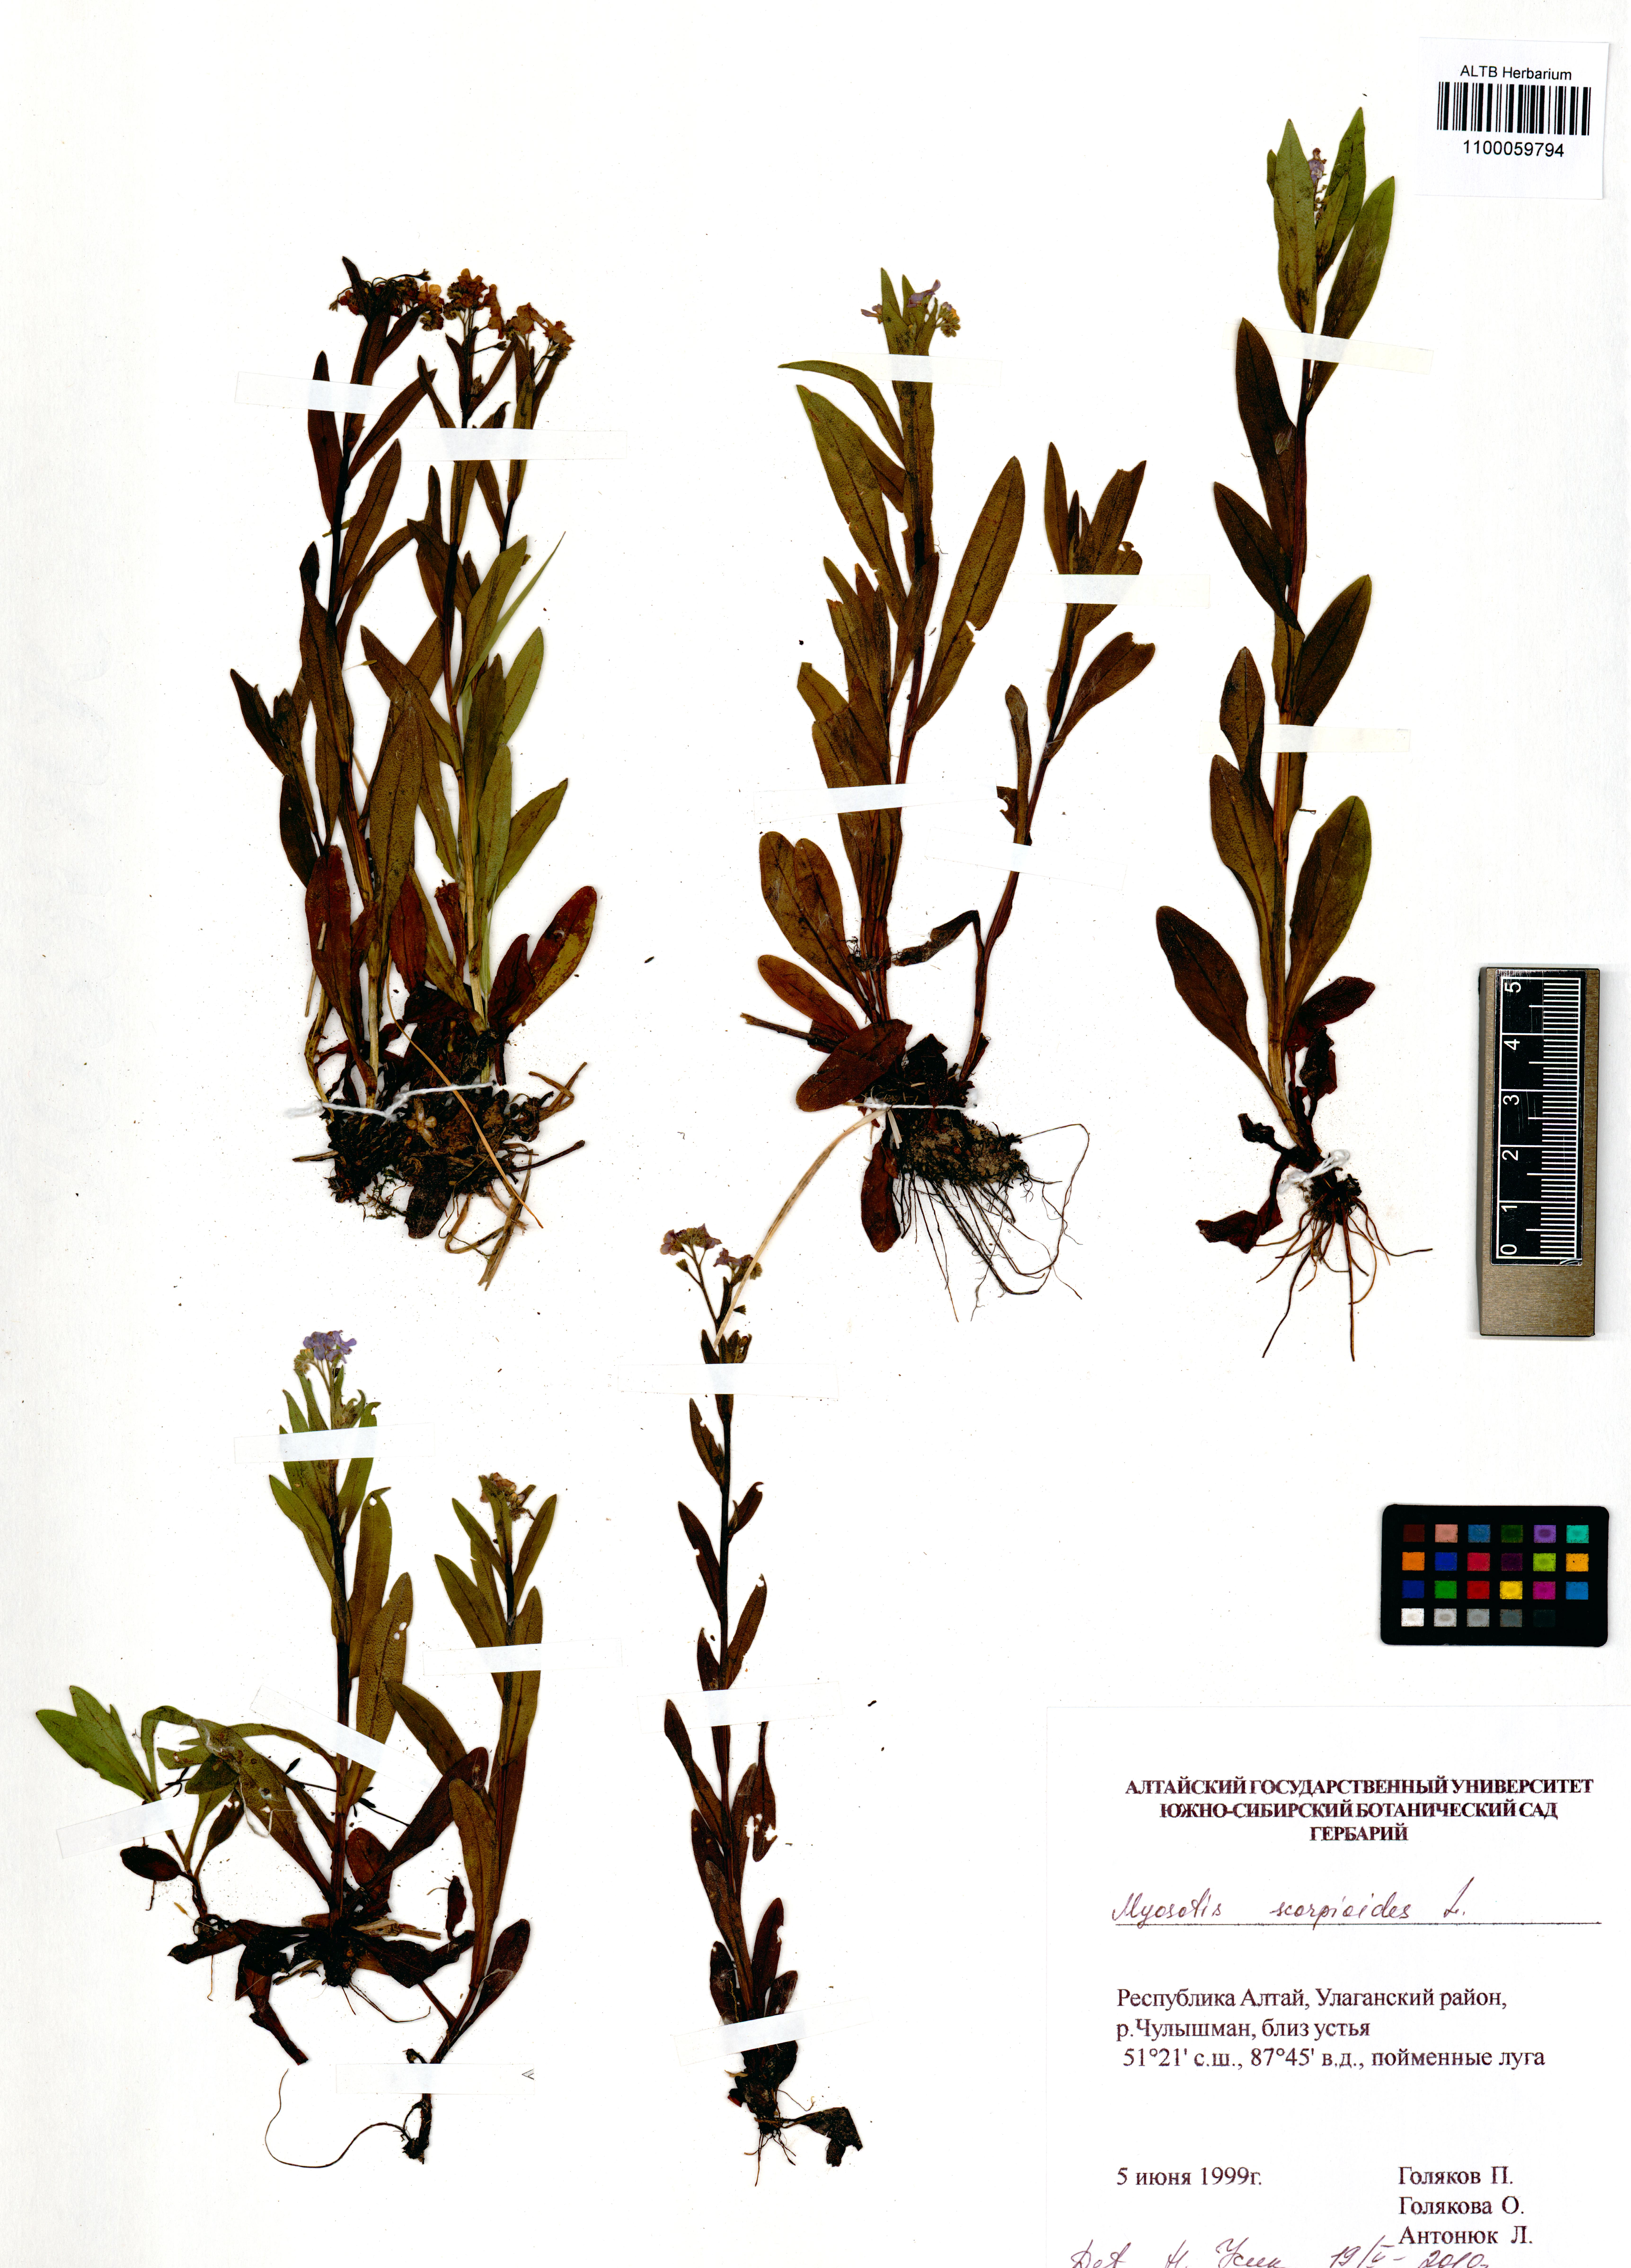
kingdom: Plantae
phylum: Tracheophyta
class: Magnoliopsida
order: Boraginales
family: Boraginaceae
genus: Myosotis
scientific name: Myosotis scorpioides
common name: Water forget-me-not
